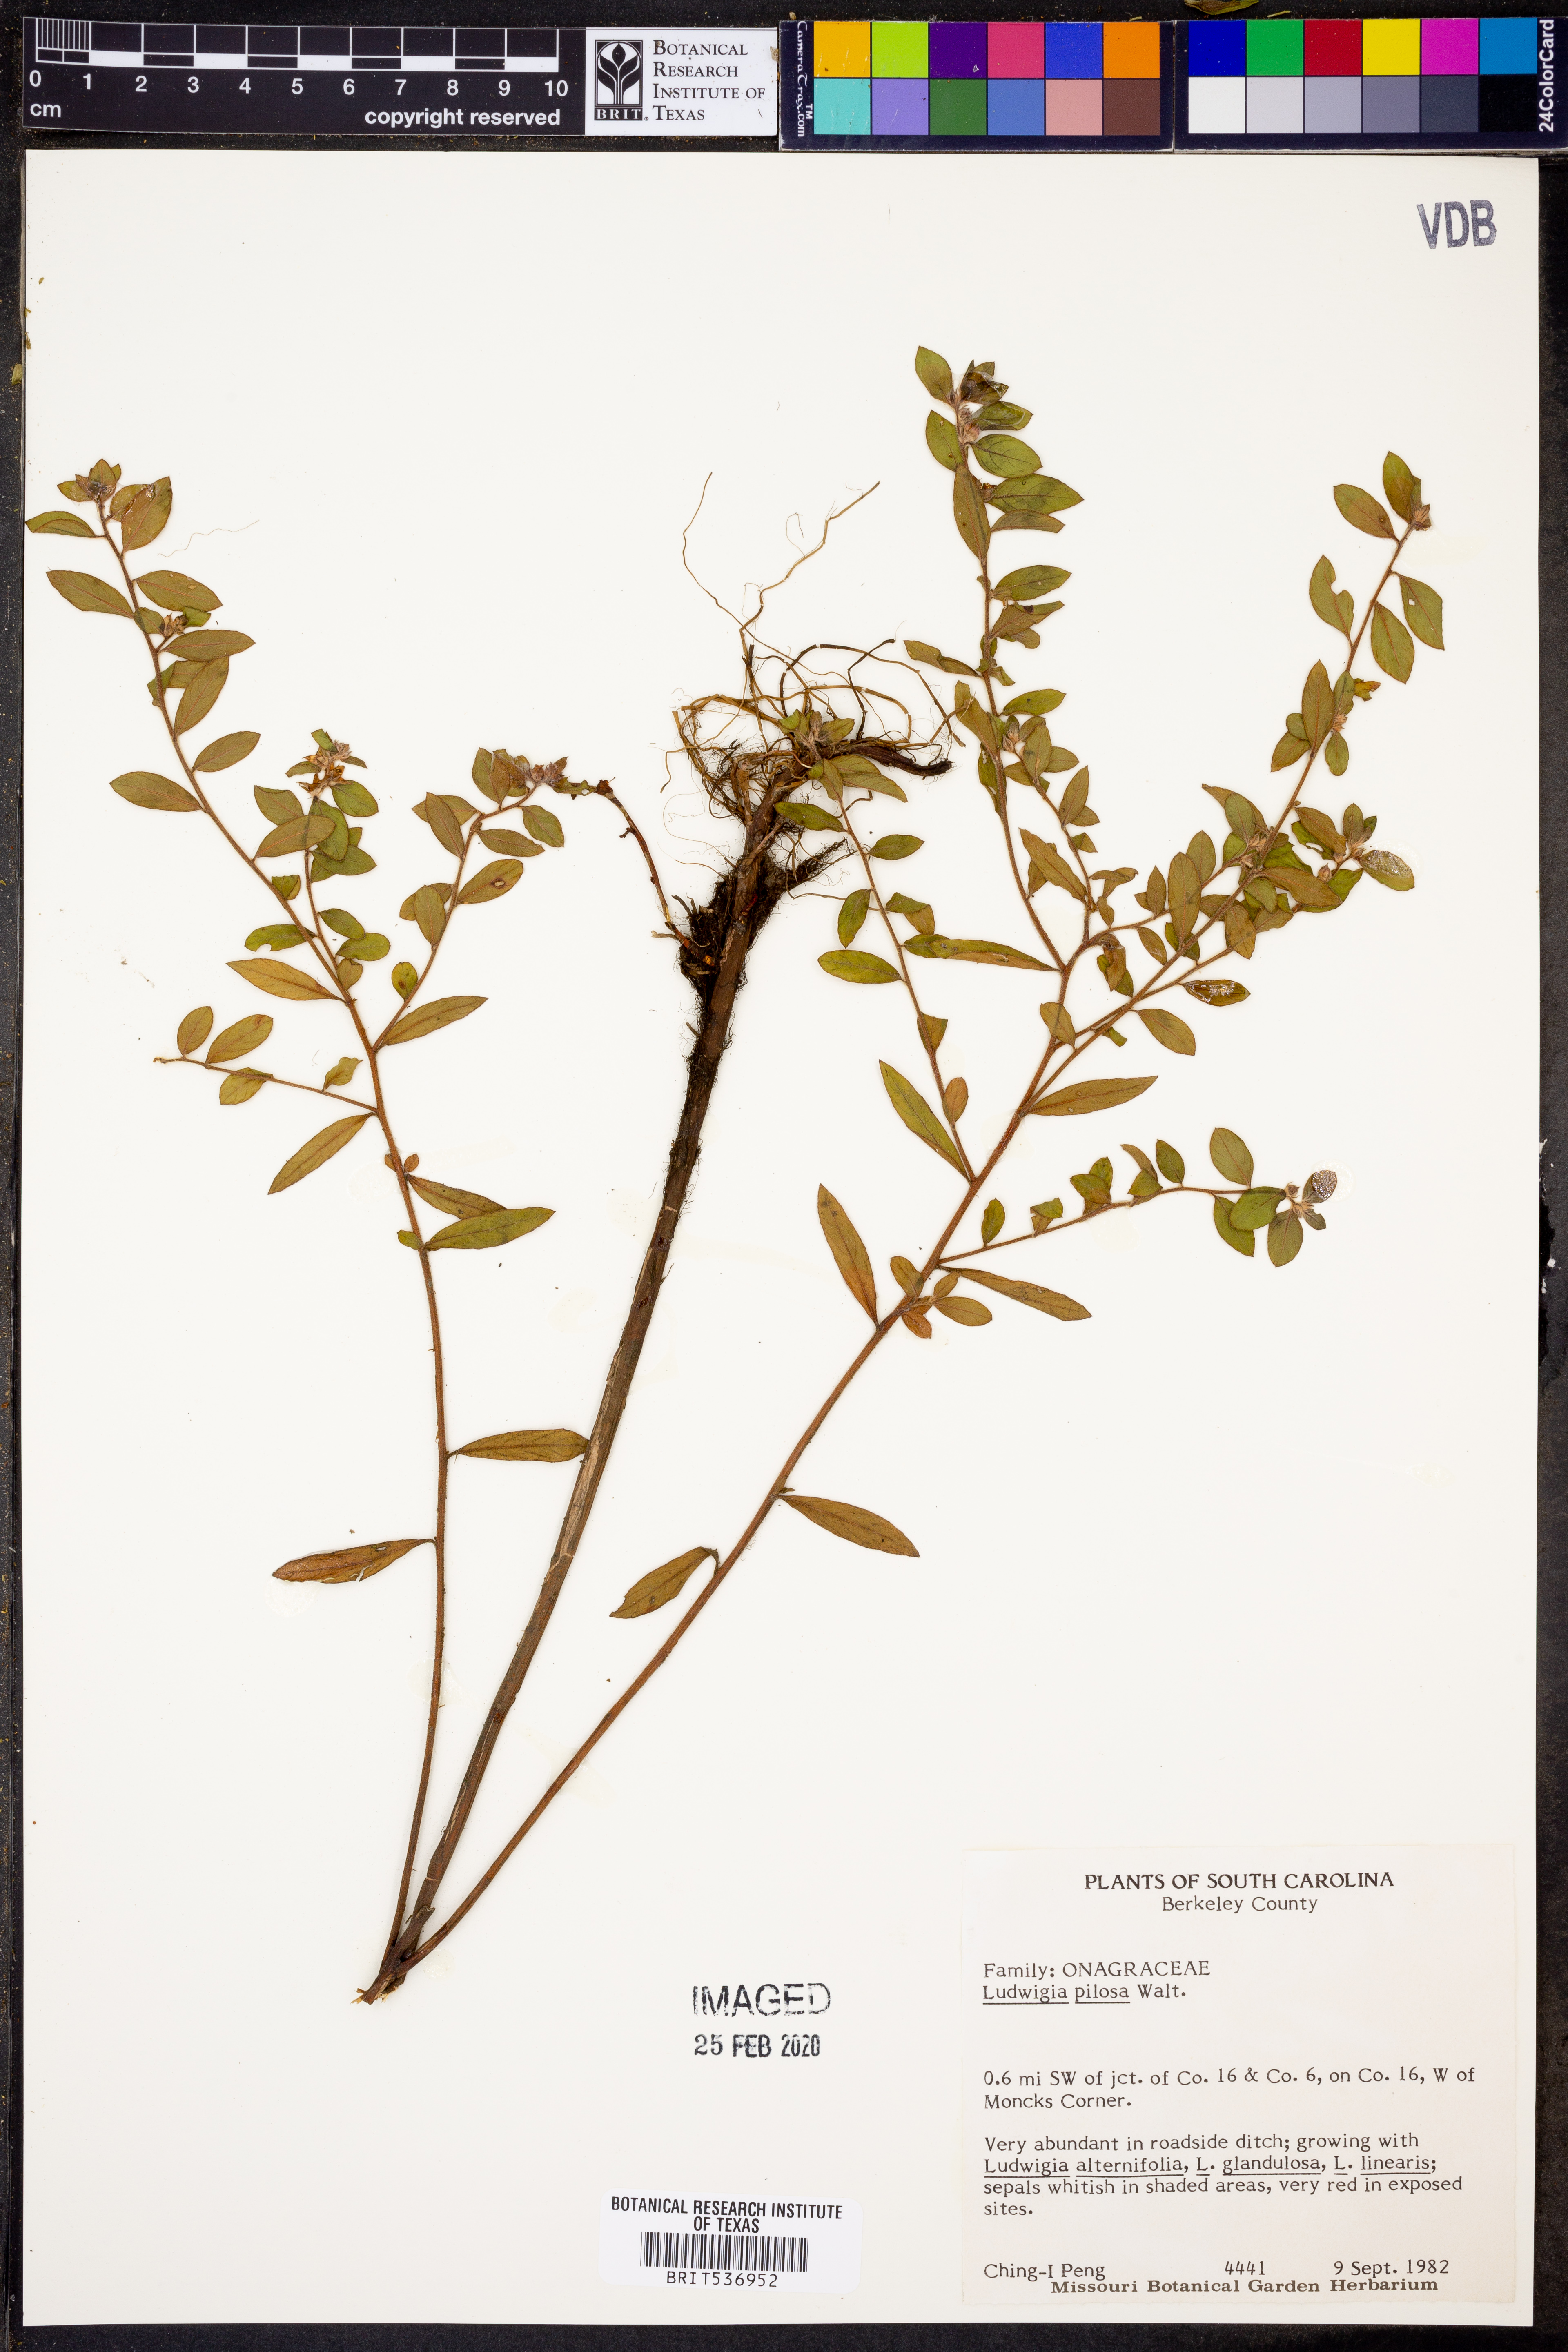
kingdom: Plantae
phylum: Tracheophyta
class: Magnoliopsida
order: Myrtales
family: Onagraceae
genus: Ludwigia
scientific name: Ludwigia pilosa
